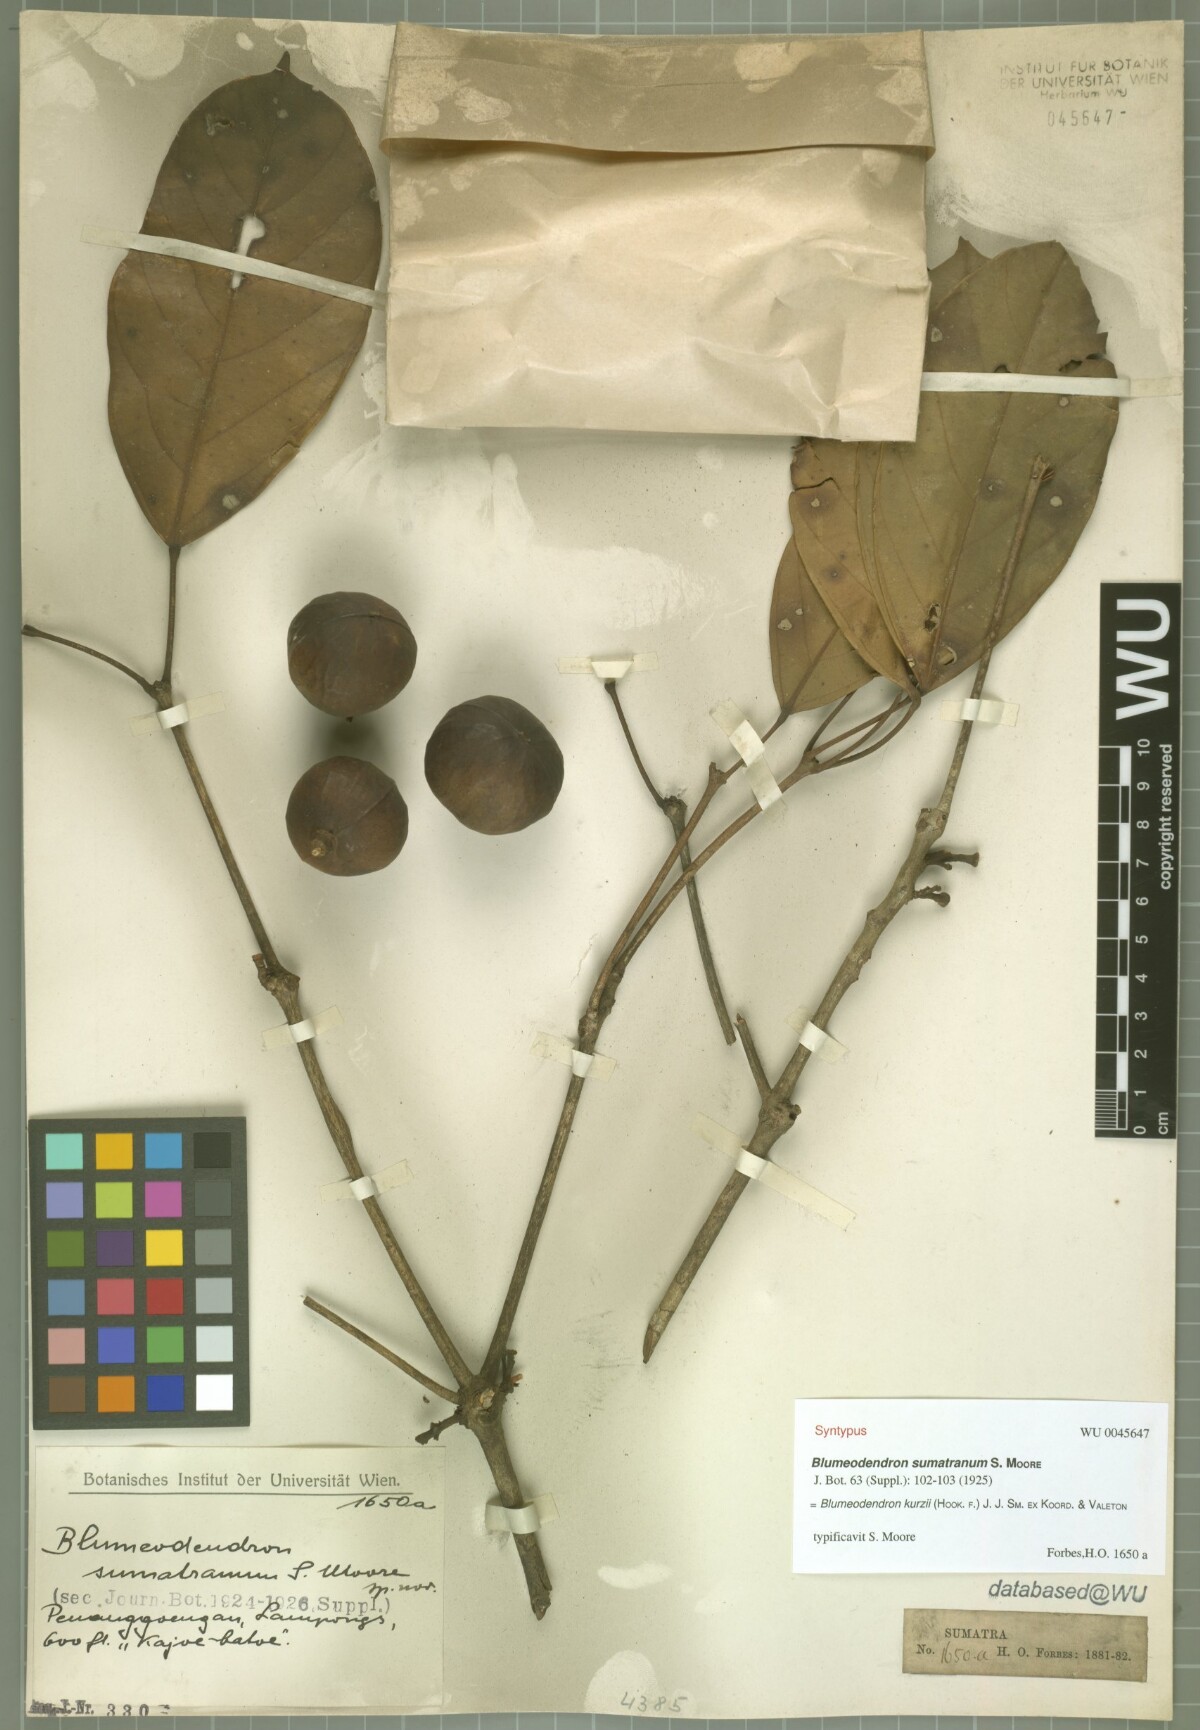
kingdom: Plantae
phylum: Tracheophyta
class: Magnoliopsida
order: Malpighiales
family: Euphorbiaceae
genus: Blumeodendron
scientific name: Blumeodendron kurzii
